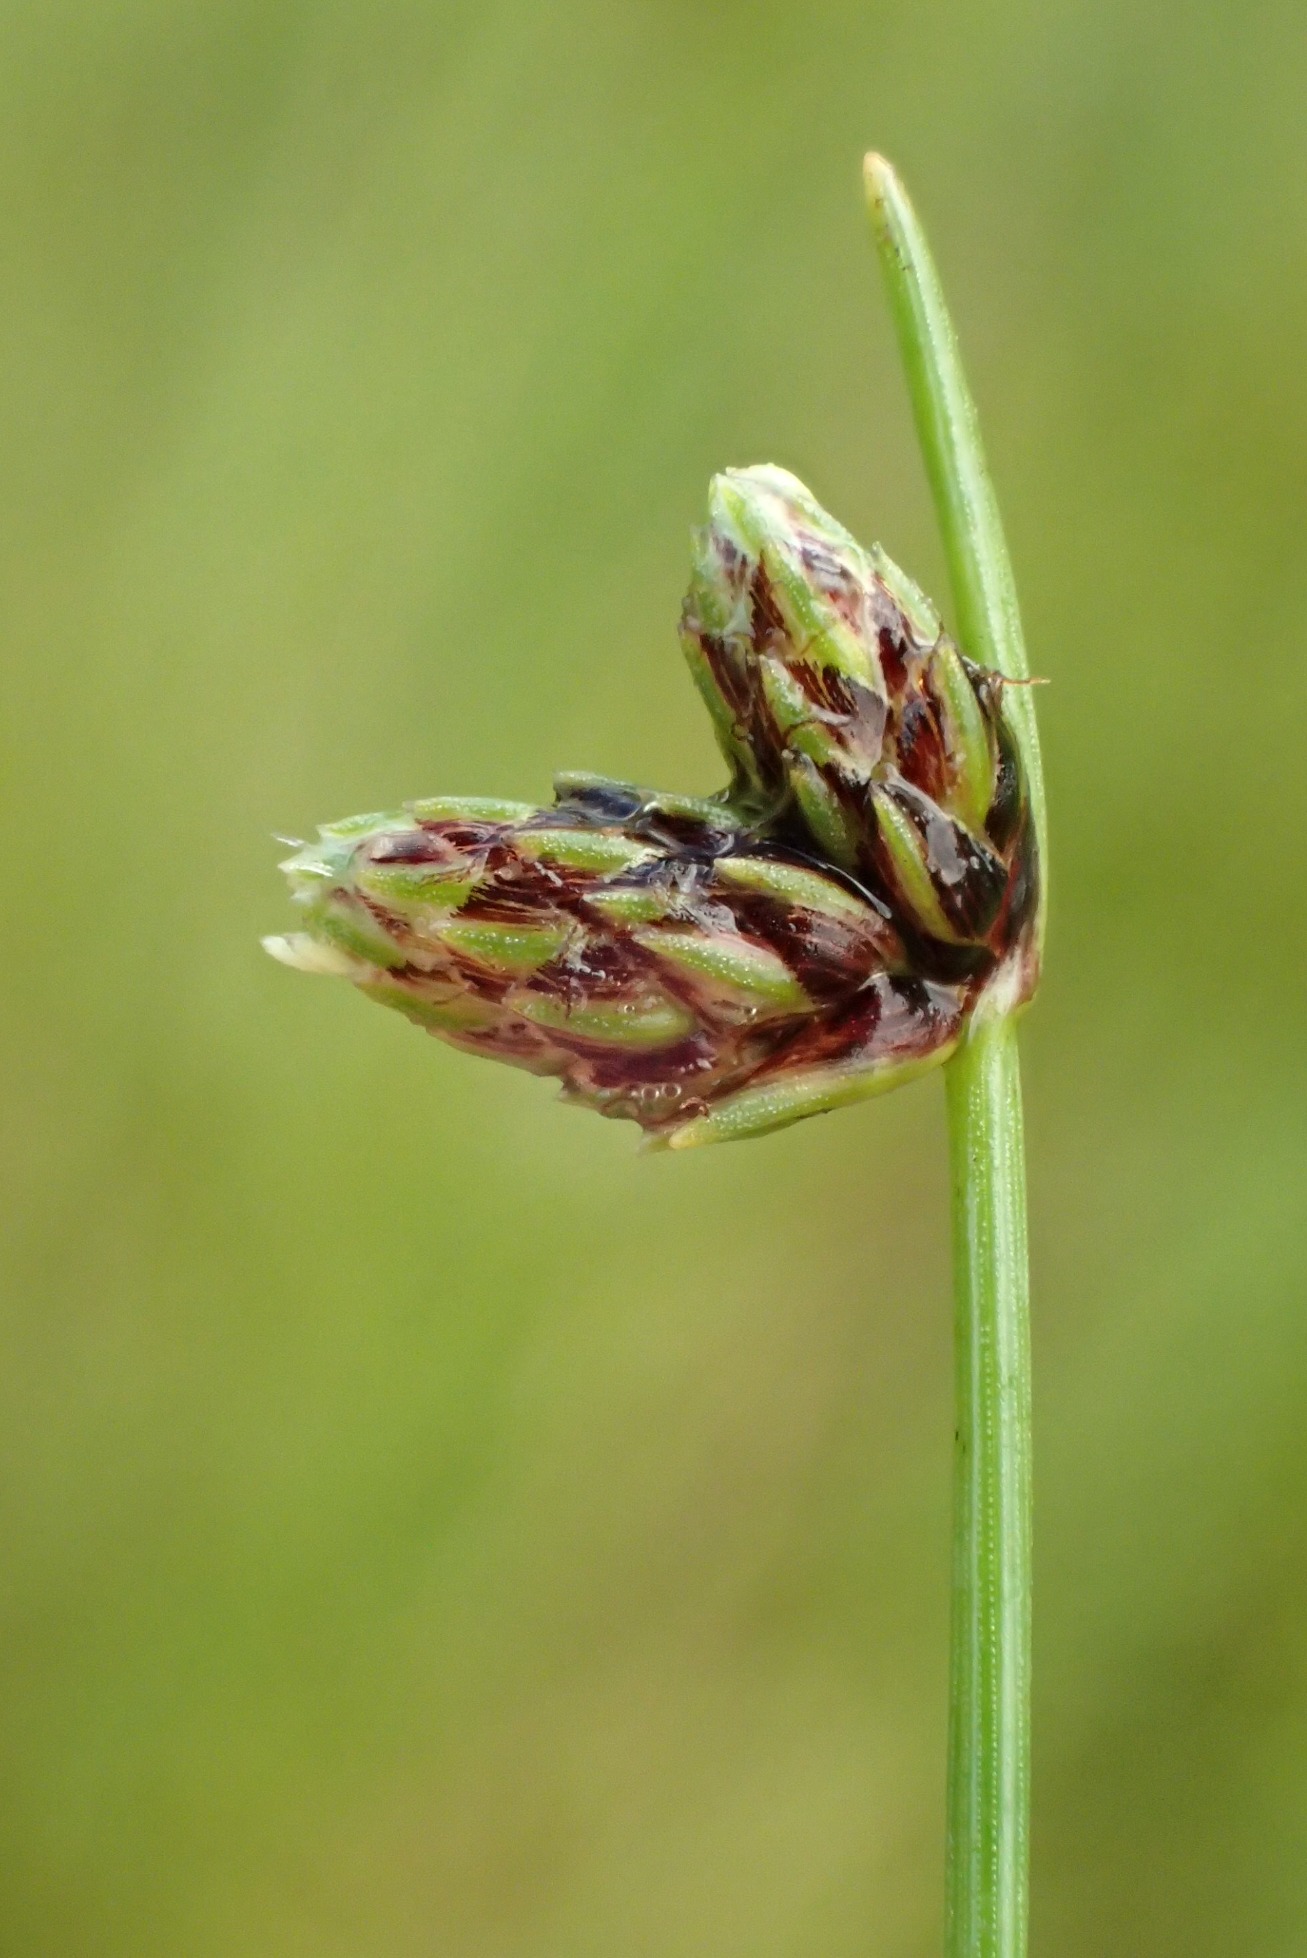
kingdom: Plantae
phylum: Tracheophyta
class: Liliopsida
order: Poales
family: Cyperaceae
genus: Isolepis
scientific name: Isolepis setacea
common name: Børste-kogleaks
